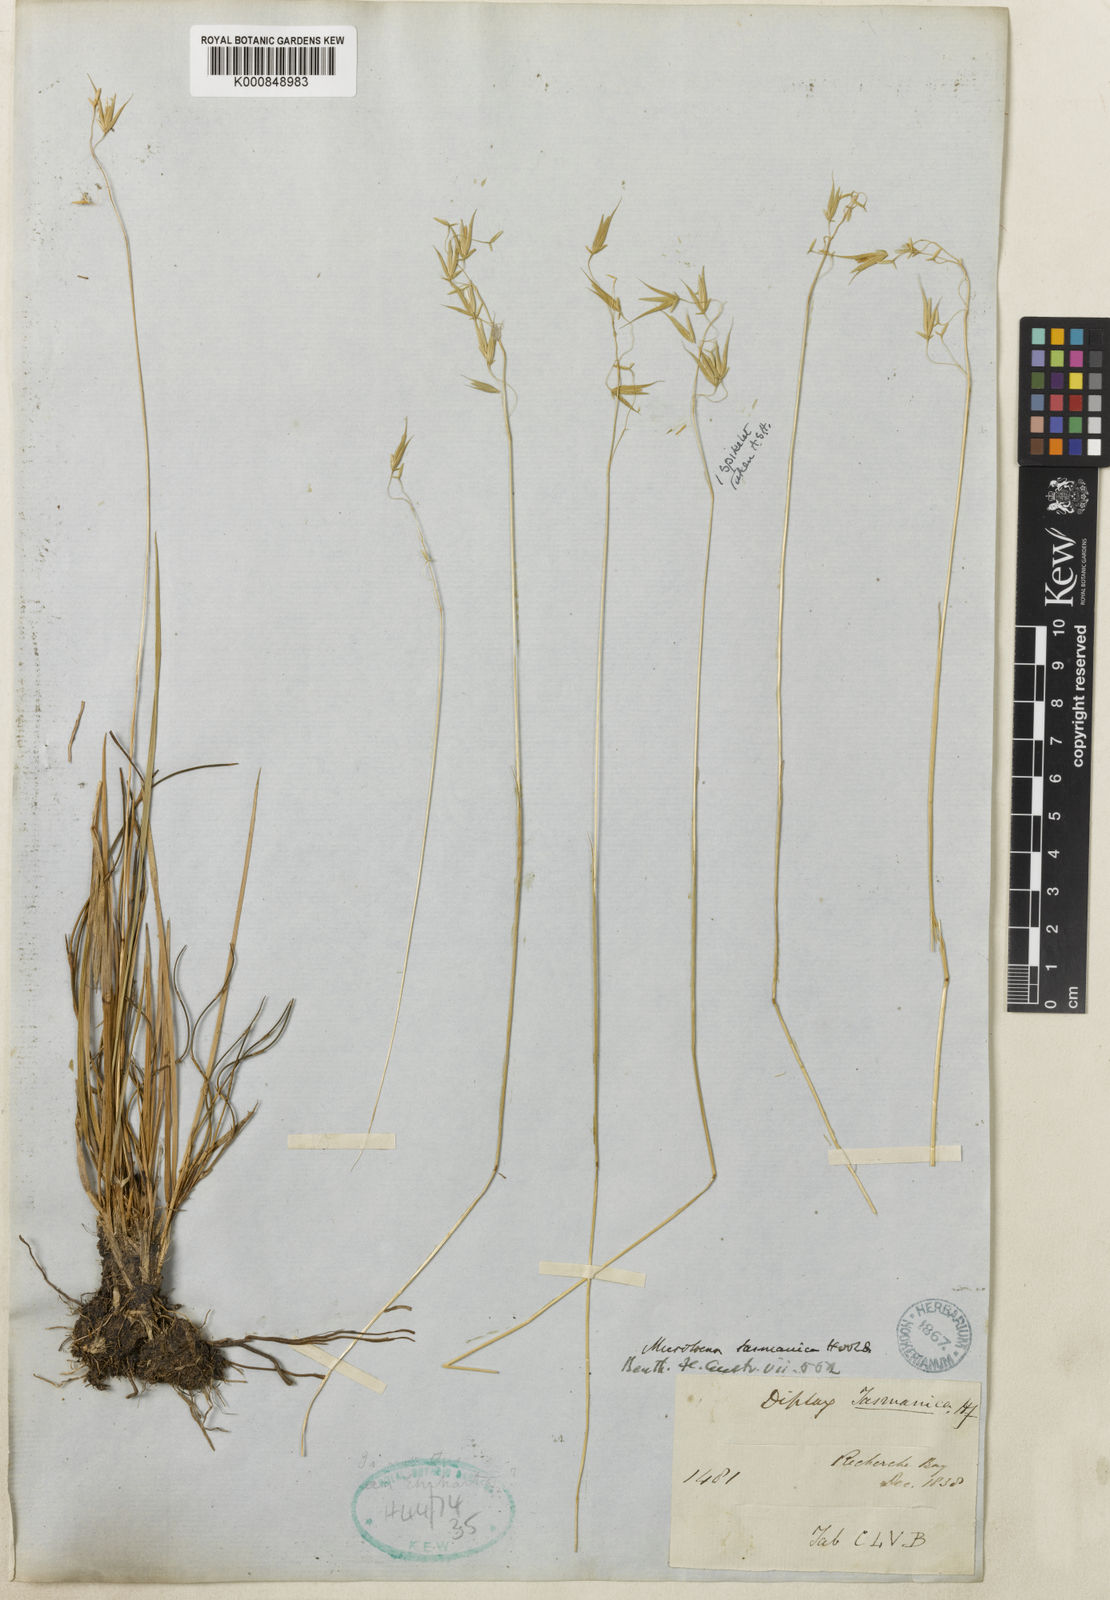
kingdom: Plantae
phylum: Tracheophyta
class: Liliopsida
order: Poales
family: Poaceae
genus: Ehrharta
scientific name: Ehrharta
